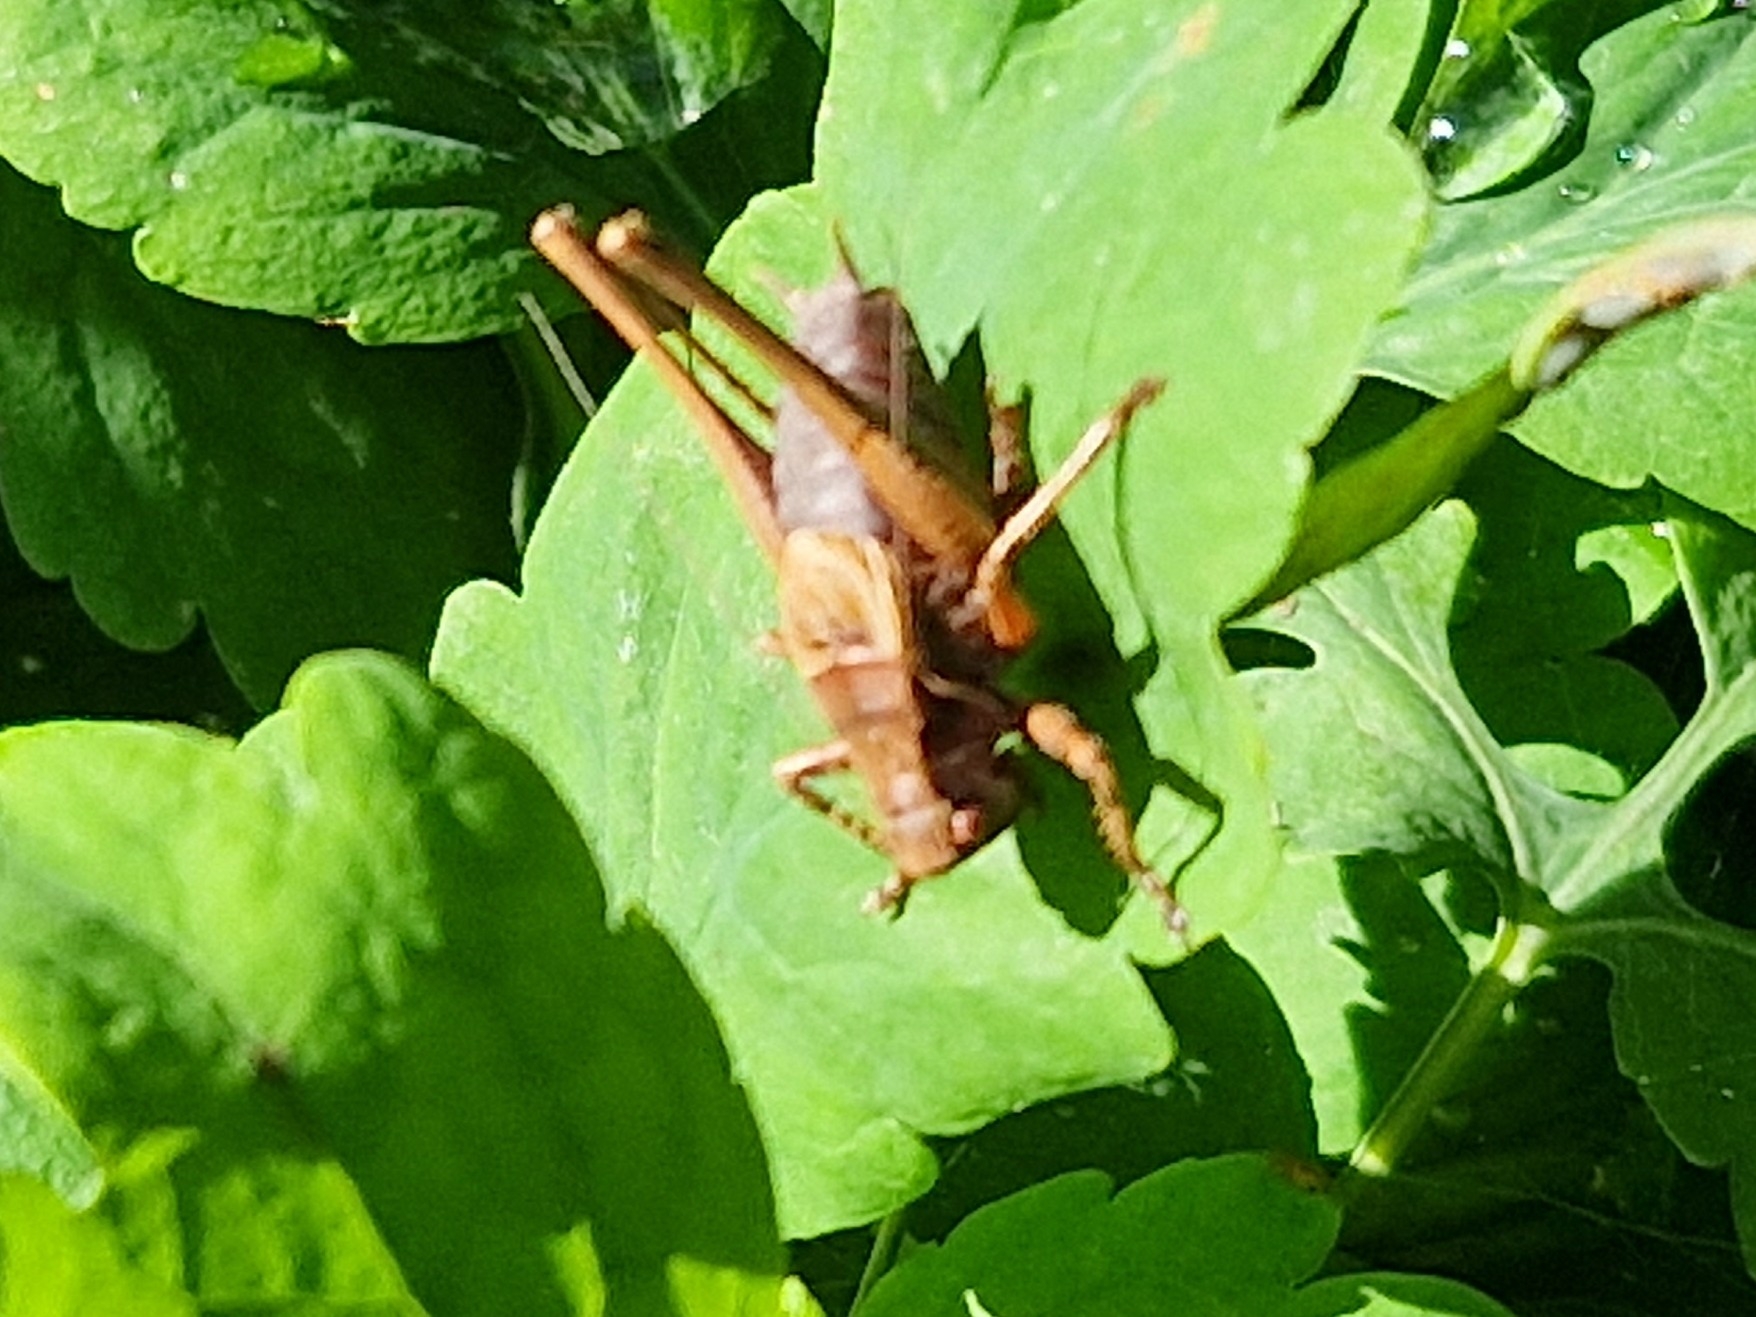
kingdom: Animalia
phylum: Arthropoda
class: Insecta
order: Orthoptera
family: Tettigoniidae
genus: Pholidoptera
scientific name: Pholidoptera griseoaptera
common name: Buskgræshoppe
